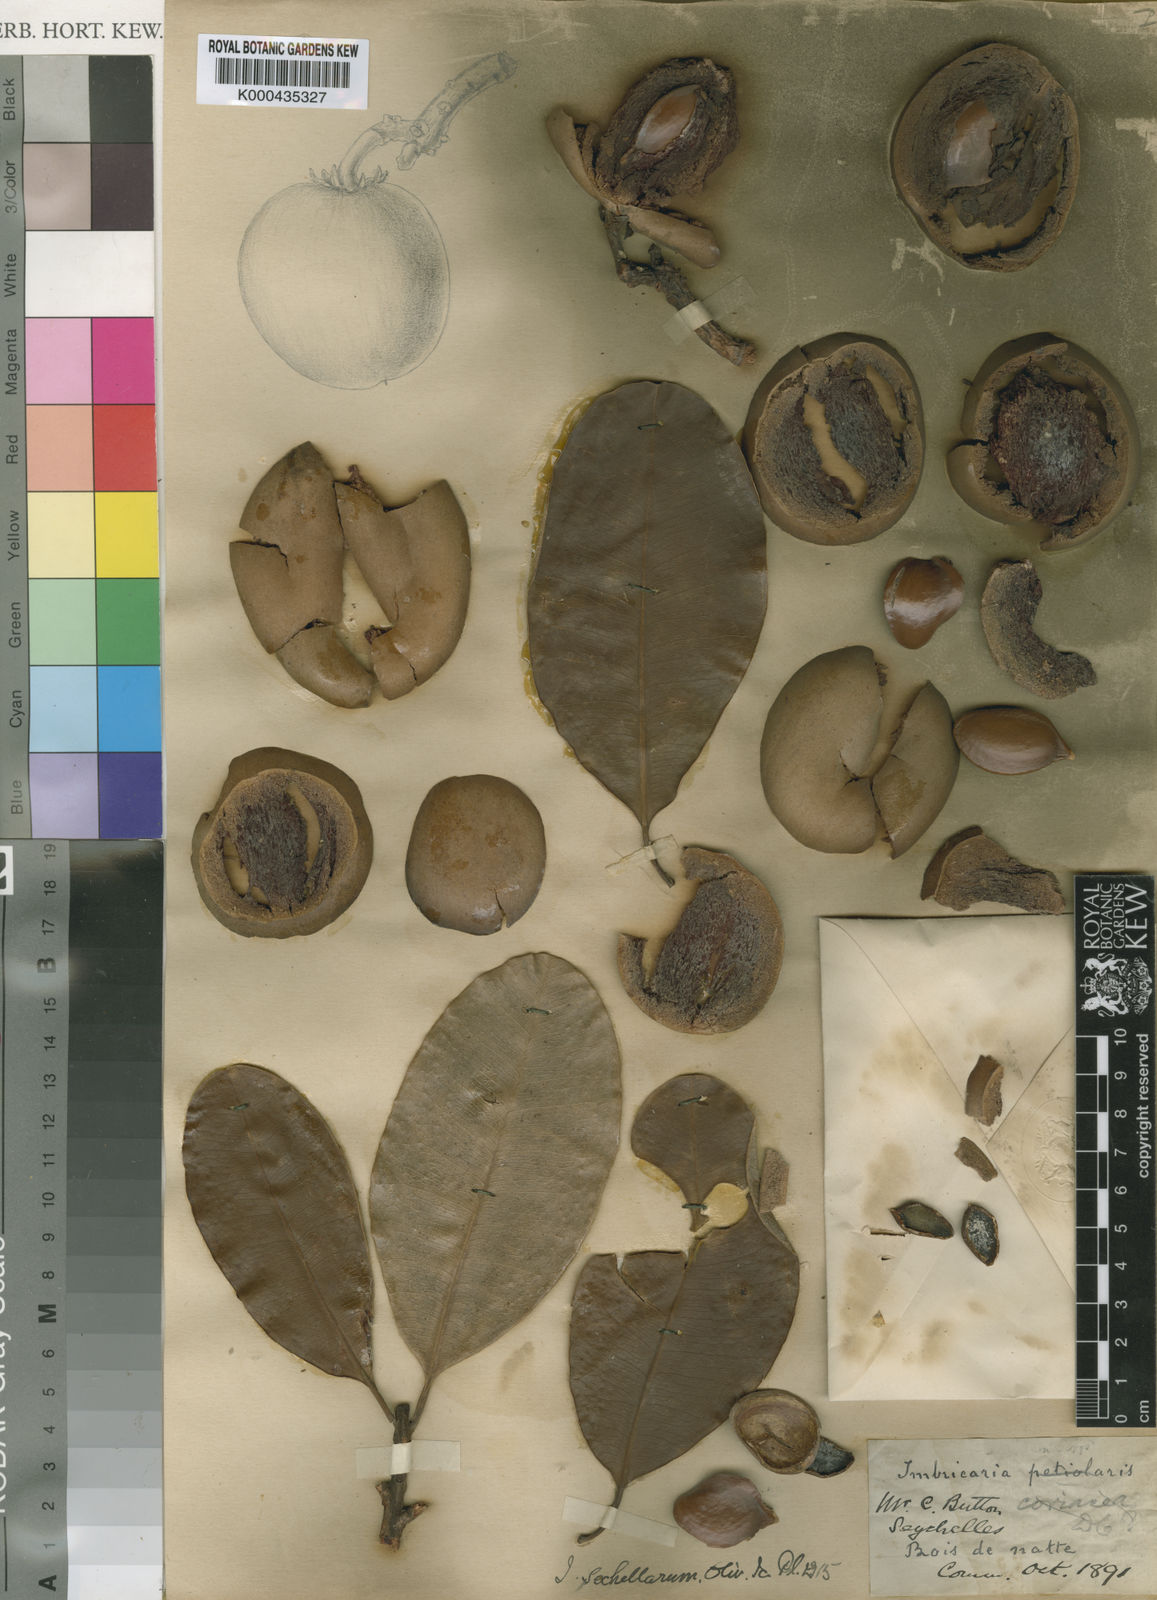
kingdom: Plantae
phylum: Tracheophyta
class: Magnoliopsida
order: Ericales
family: Sapotaceae
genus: Mimusops
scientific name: Mimusops sechellarum
